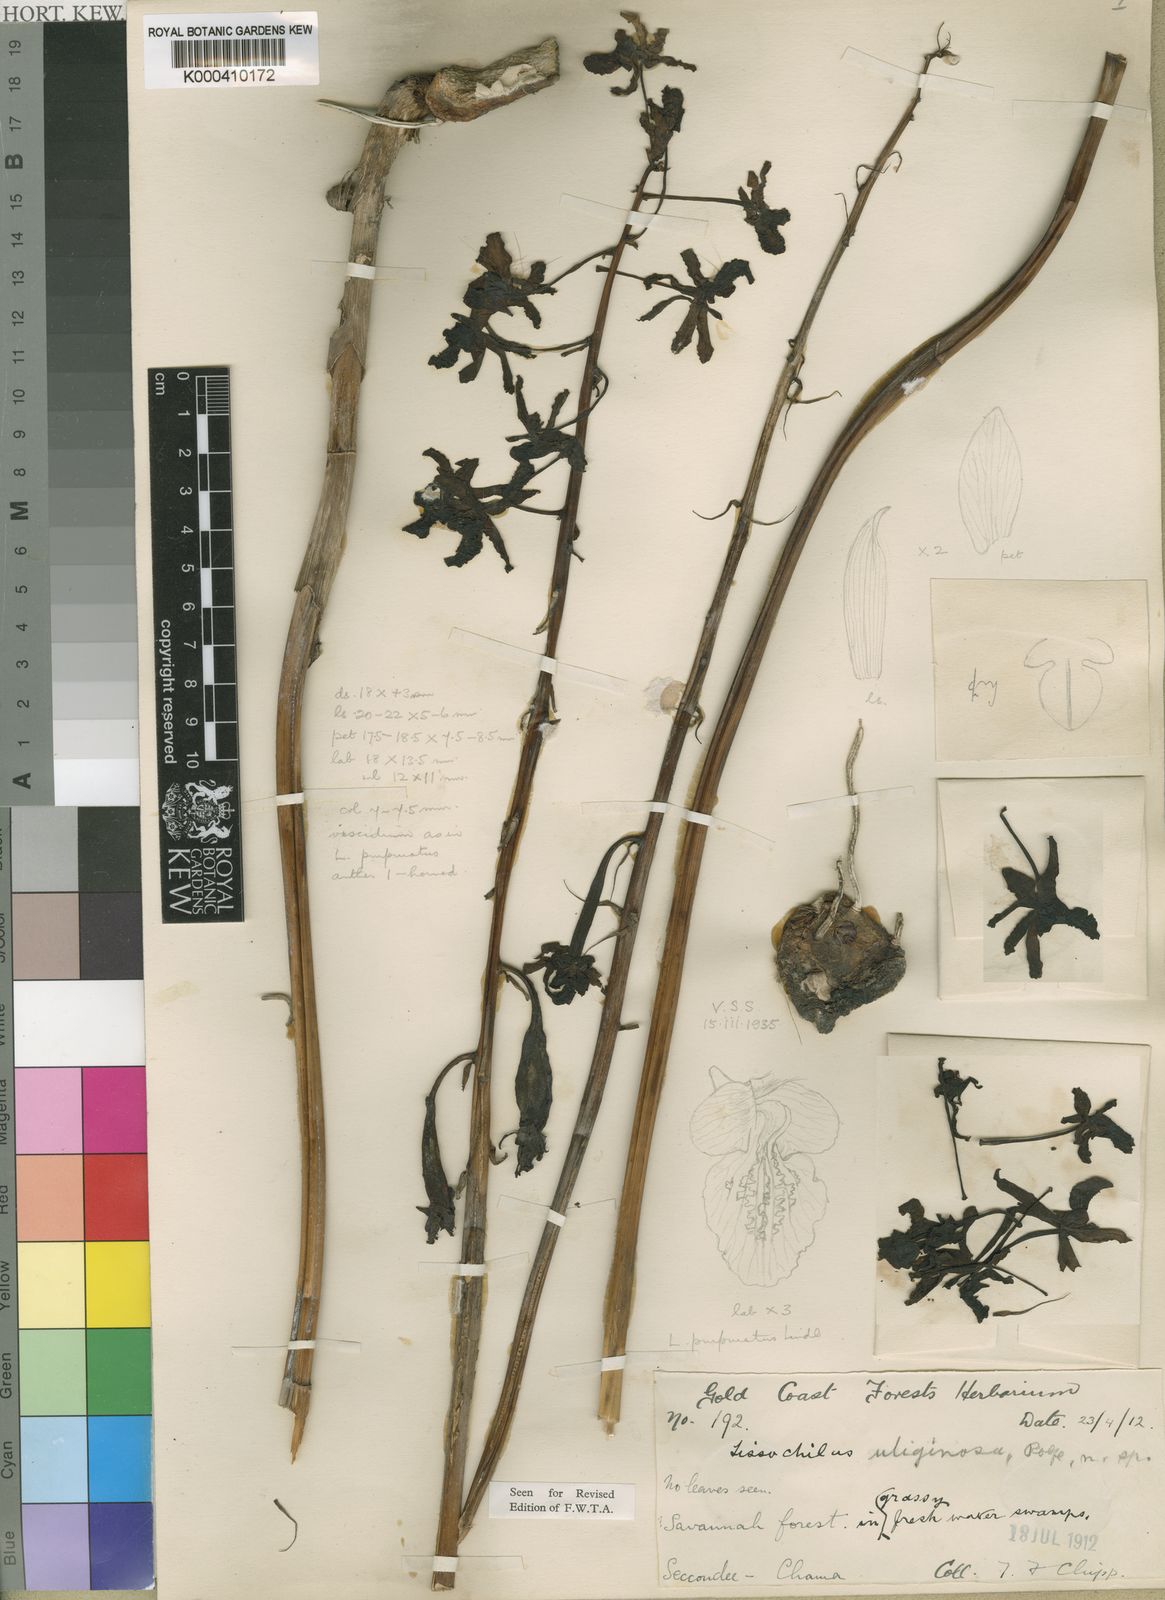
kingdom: Plantae
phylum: Tracheophyta
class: Liliopsida
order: Asparagales
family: Orchidaceae
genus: Eulophia
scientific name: Eulophia cristata
